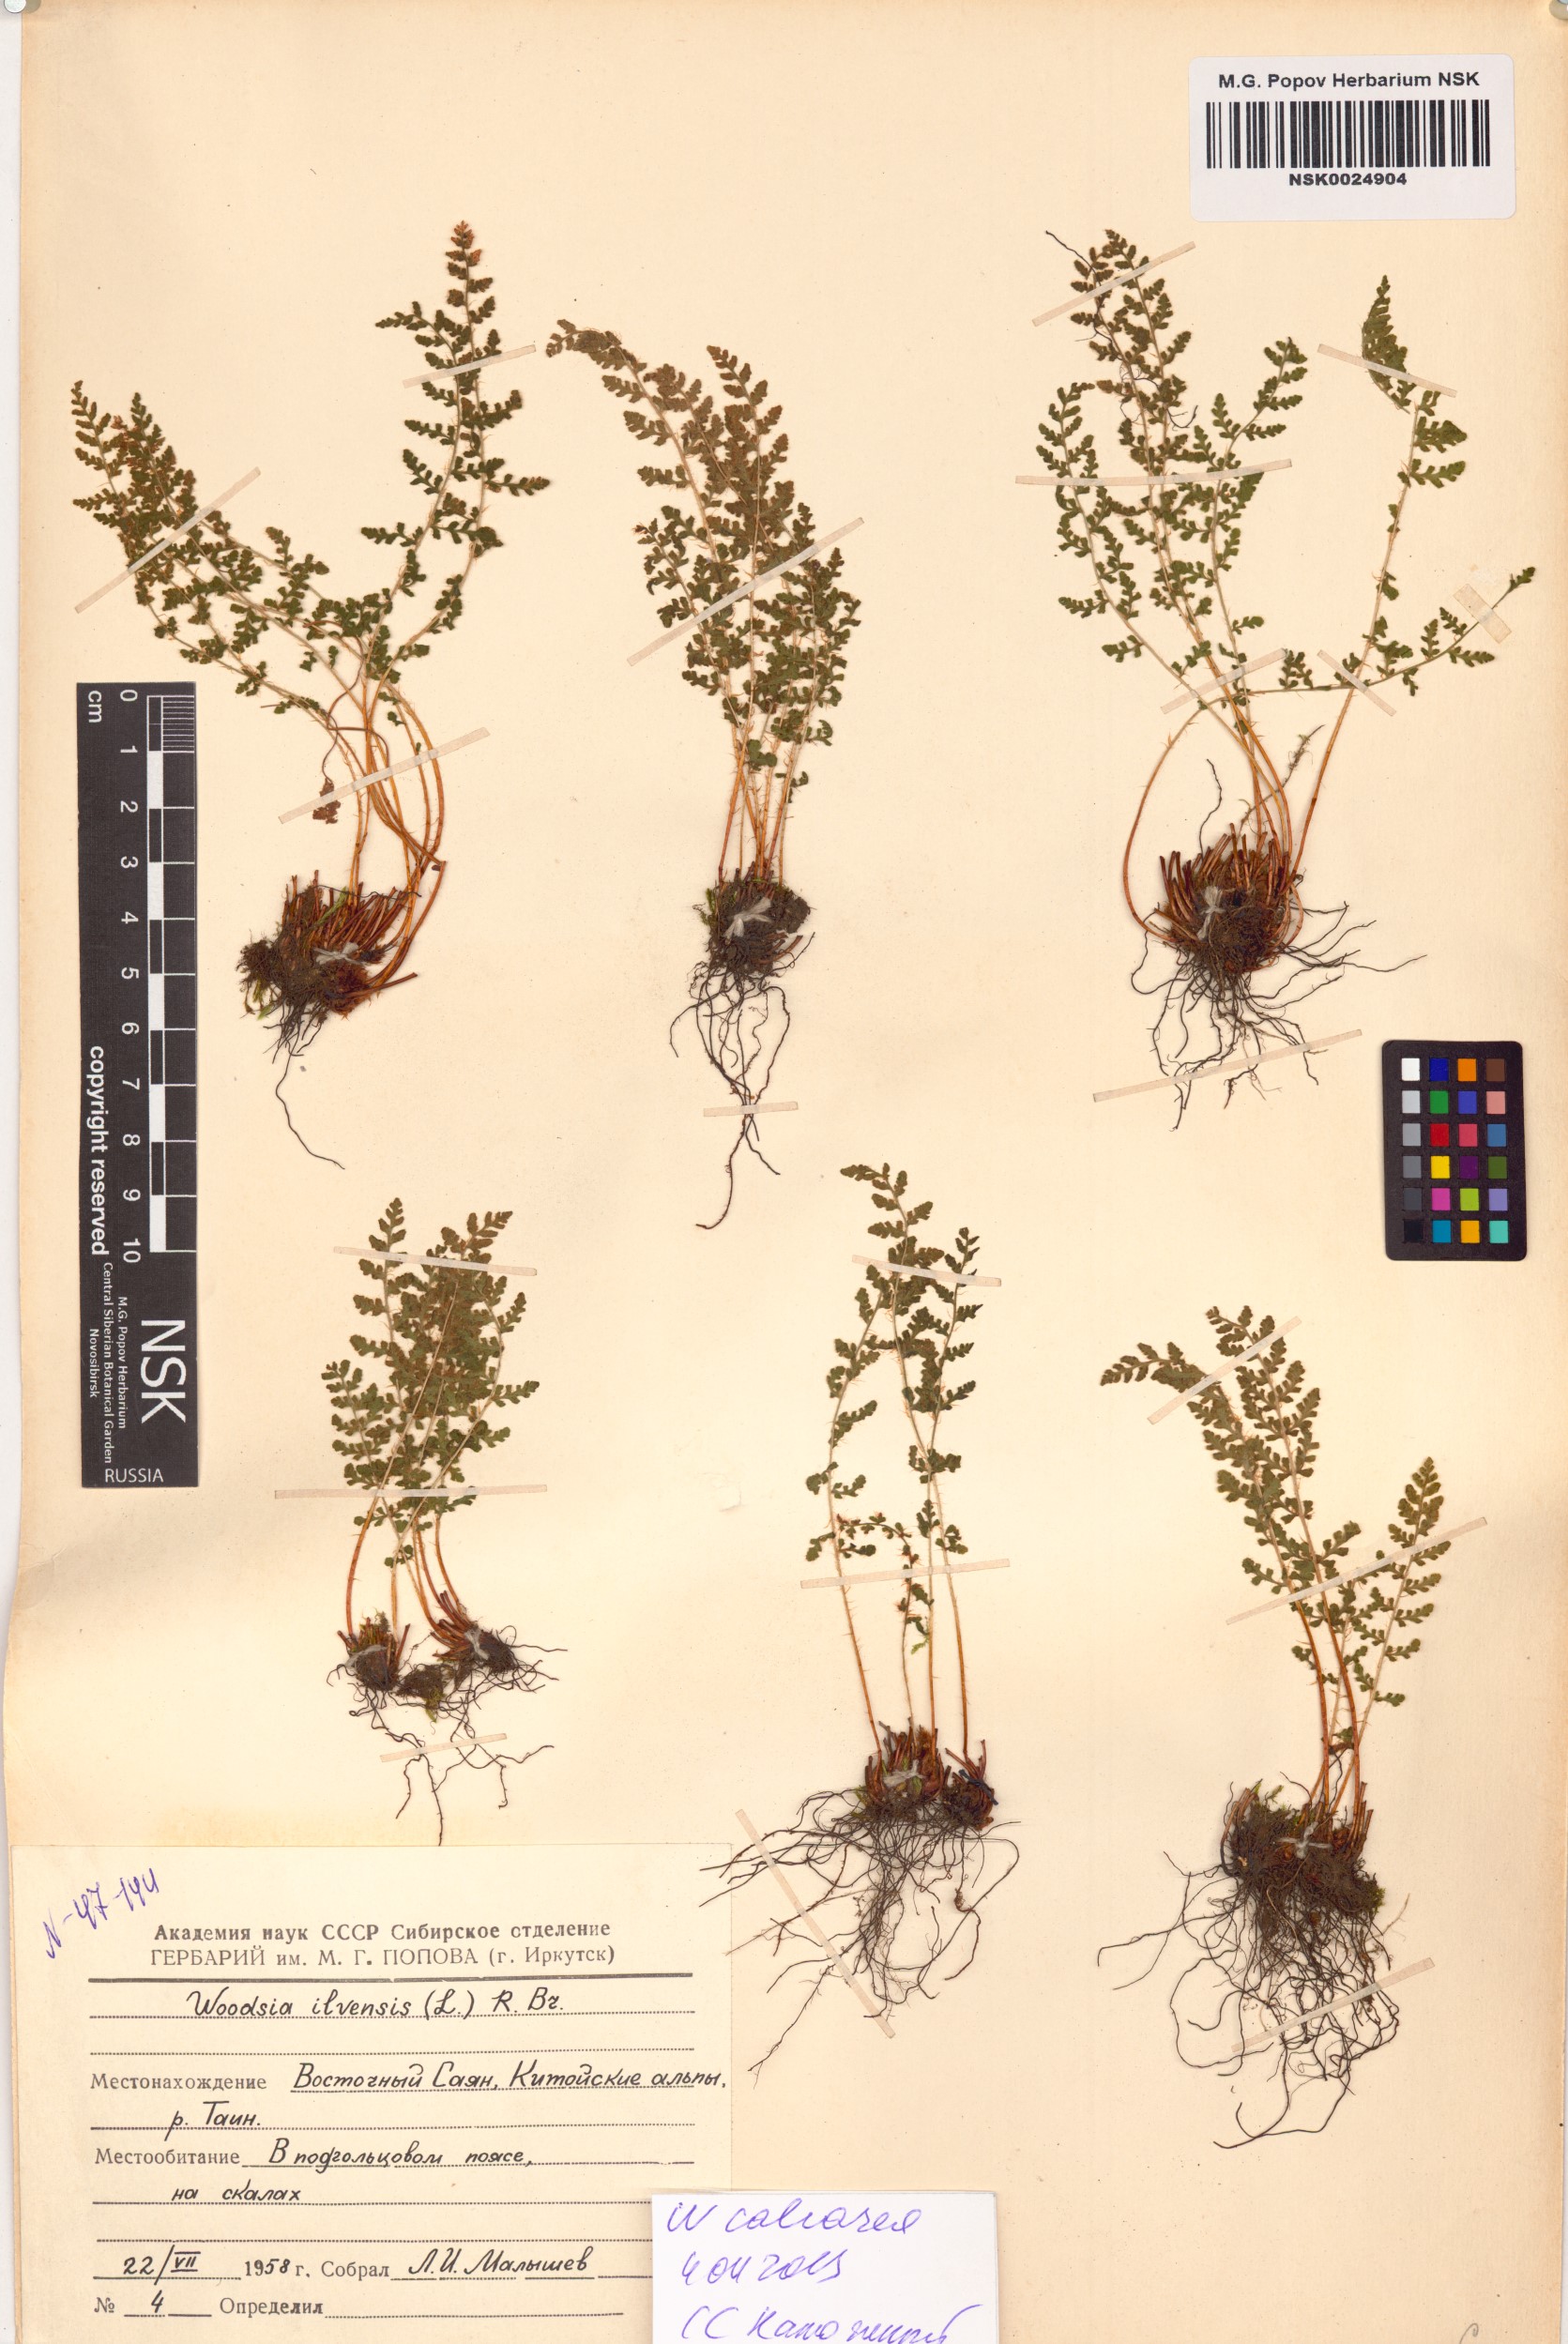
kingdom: Plantae
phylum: Tracheophyta
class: Polypodiopsida
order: Polypodiales
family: Woodsiaceae
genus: Woodsia
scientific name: Woodsia calcarea
